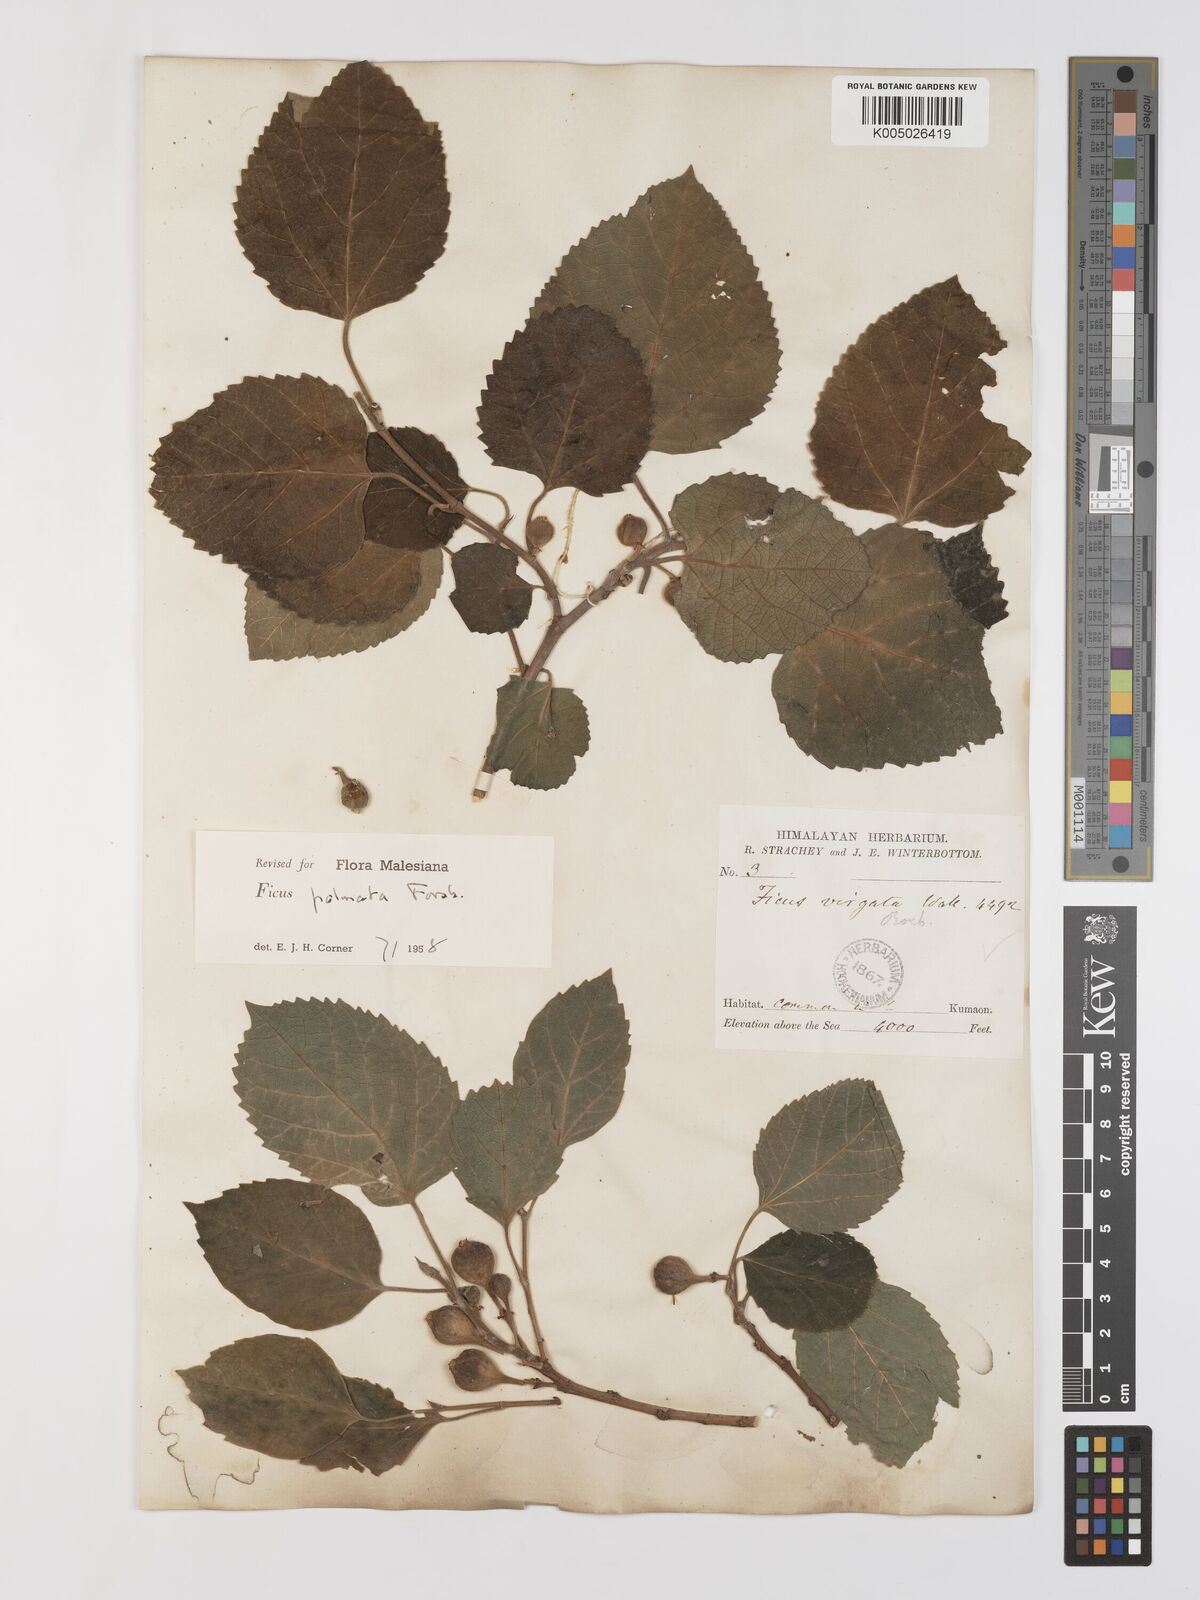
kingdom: Plantae
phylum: Tracheophyta
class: Magnoliopsida
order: Rosales
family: Moraceae
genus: Ficus
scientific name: Ficus
